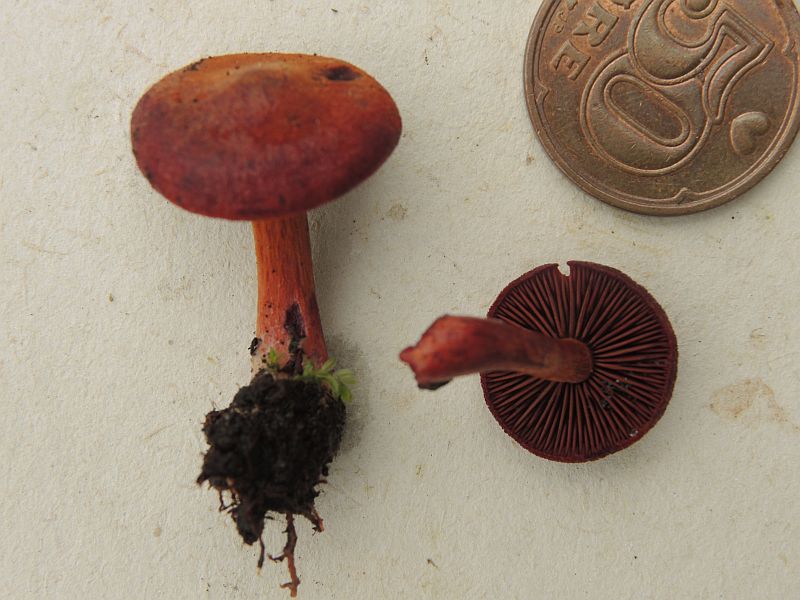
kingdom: Fungi
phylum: Basidiomycota
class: Agaricomycetes
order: Agaricales
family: Cortinariaceae
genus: Cortinarius
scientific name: Cortinarius sanguineus
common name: Bloodred webcap
